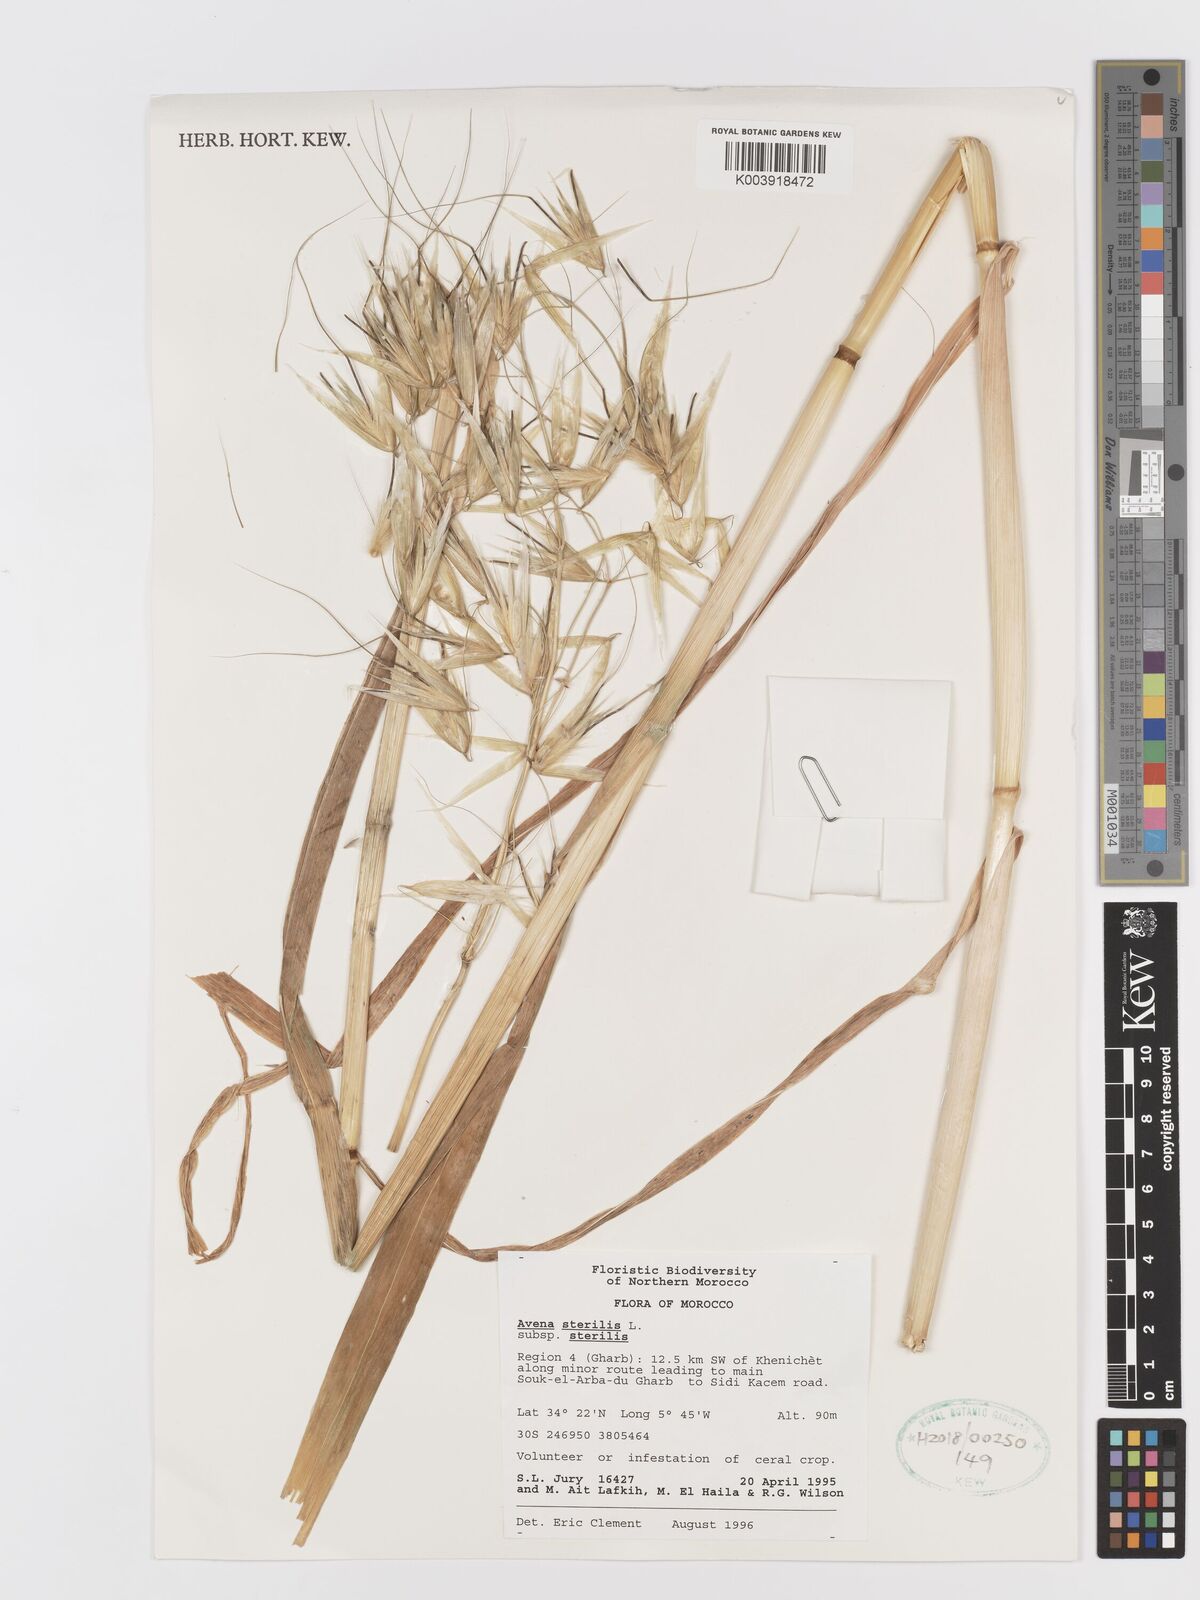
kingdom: Plantae
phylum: Tracheophyta
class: Liliopsida
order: Poales
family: Poaceae
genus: Avena
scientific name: Avena sterilis
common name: Animated oat
